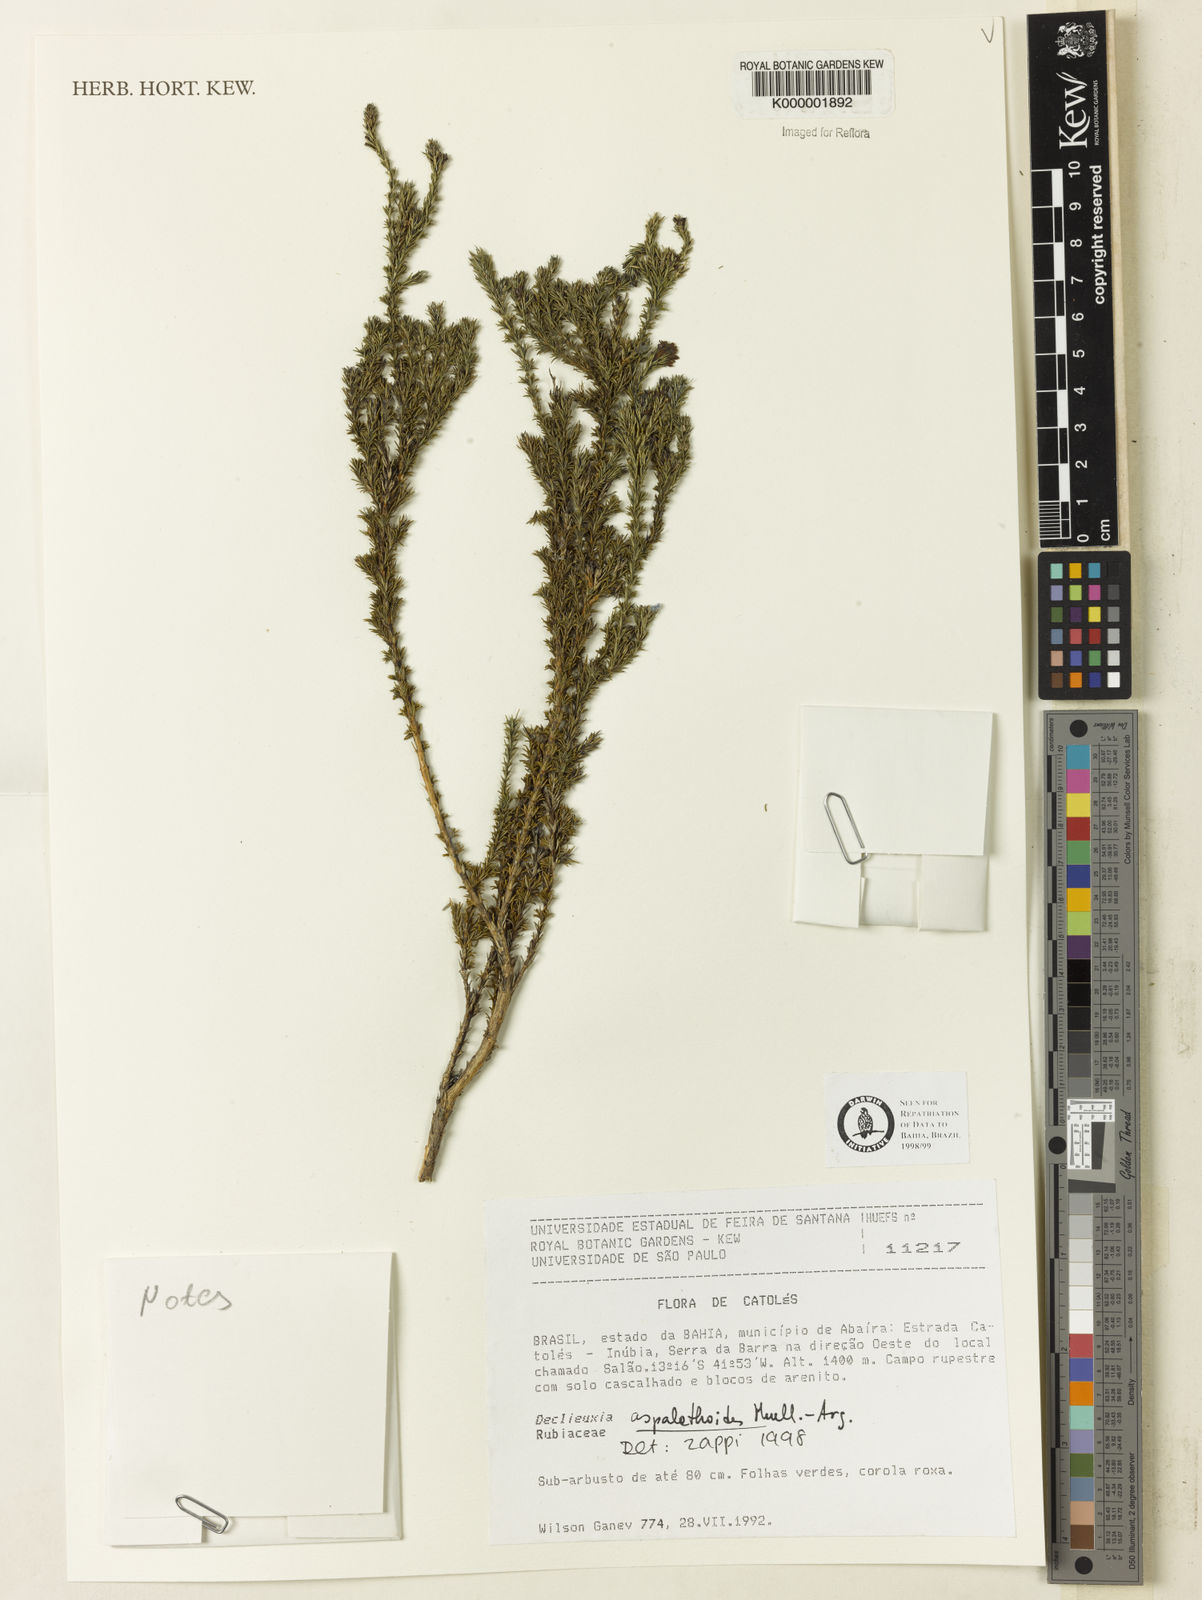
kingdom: Plantae
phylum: Tracheophyta
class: Magnoliopsida
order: Gentianales
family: Rubiaceae
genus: Declieuxia
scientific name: Declieuxia aspalathoides
